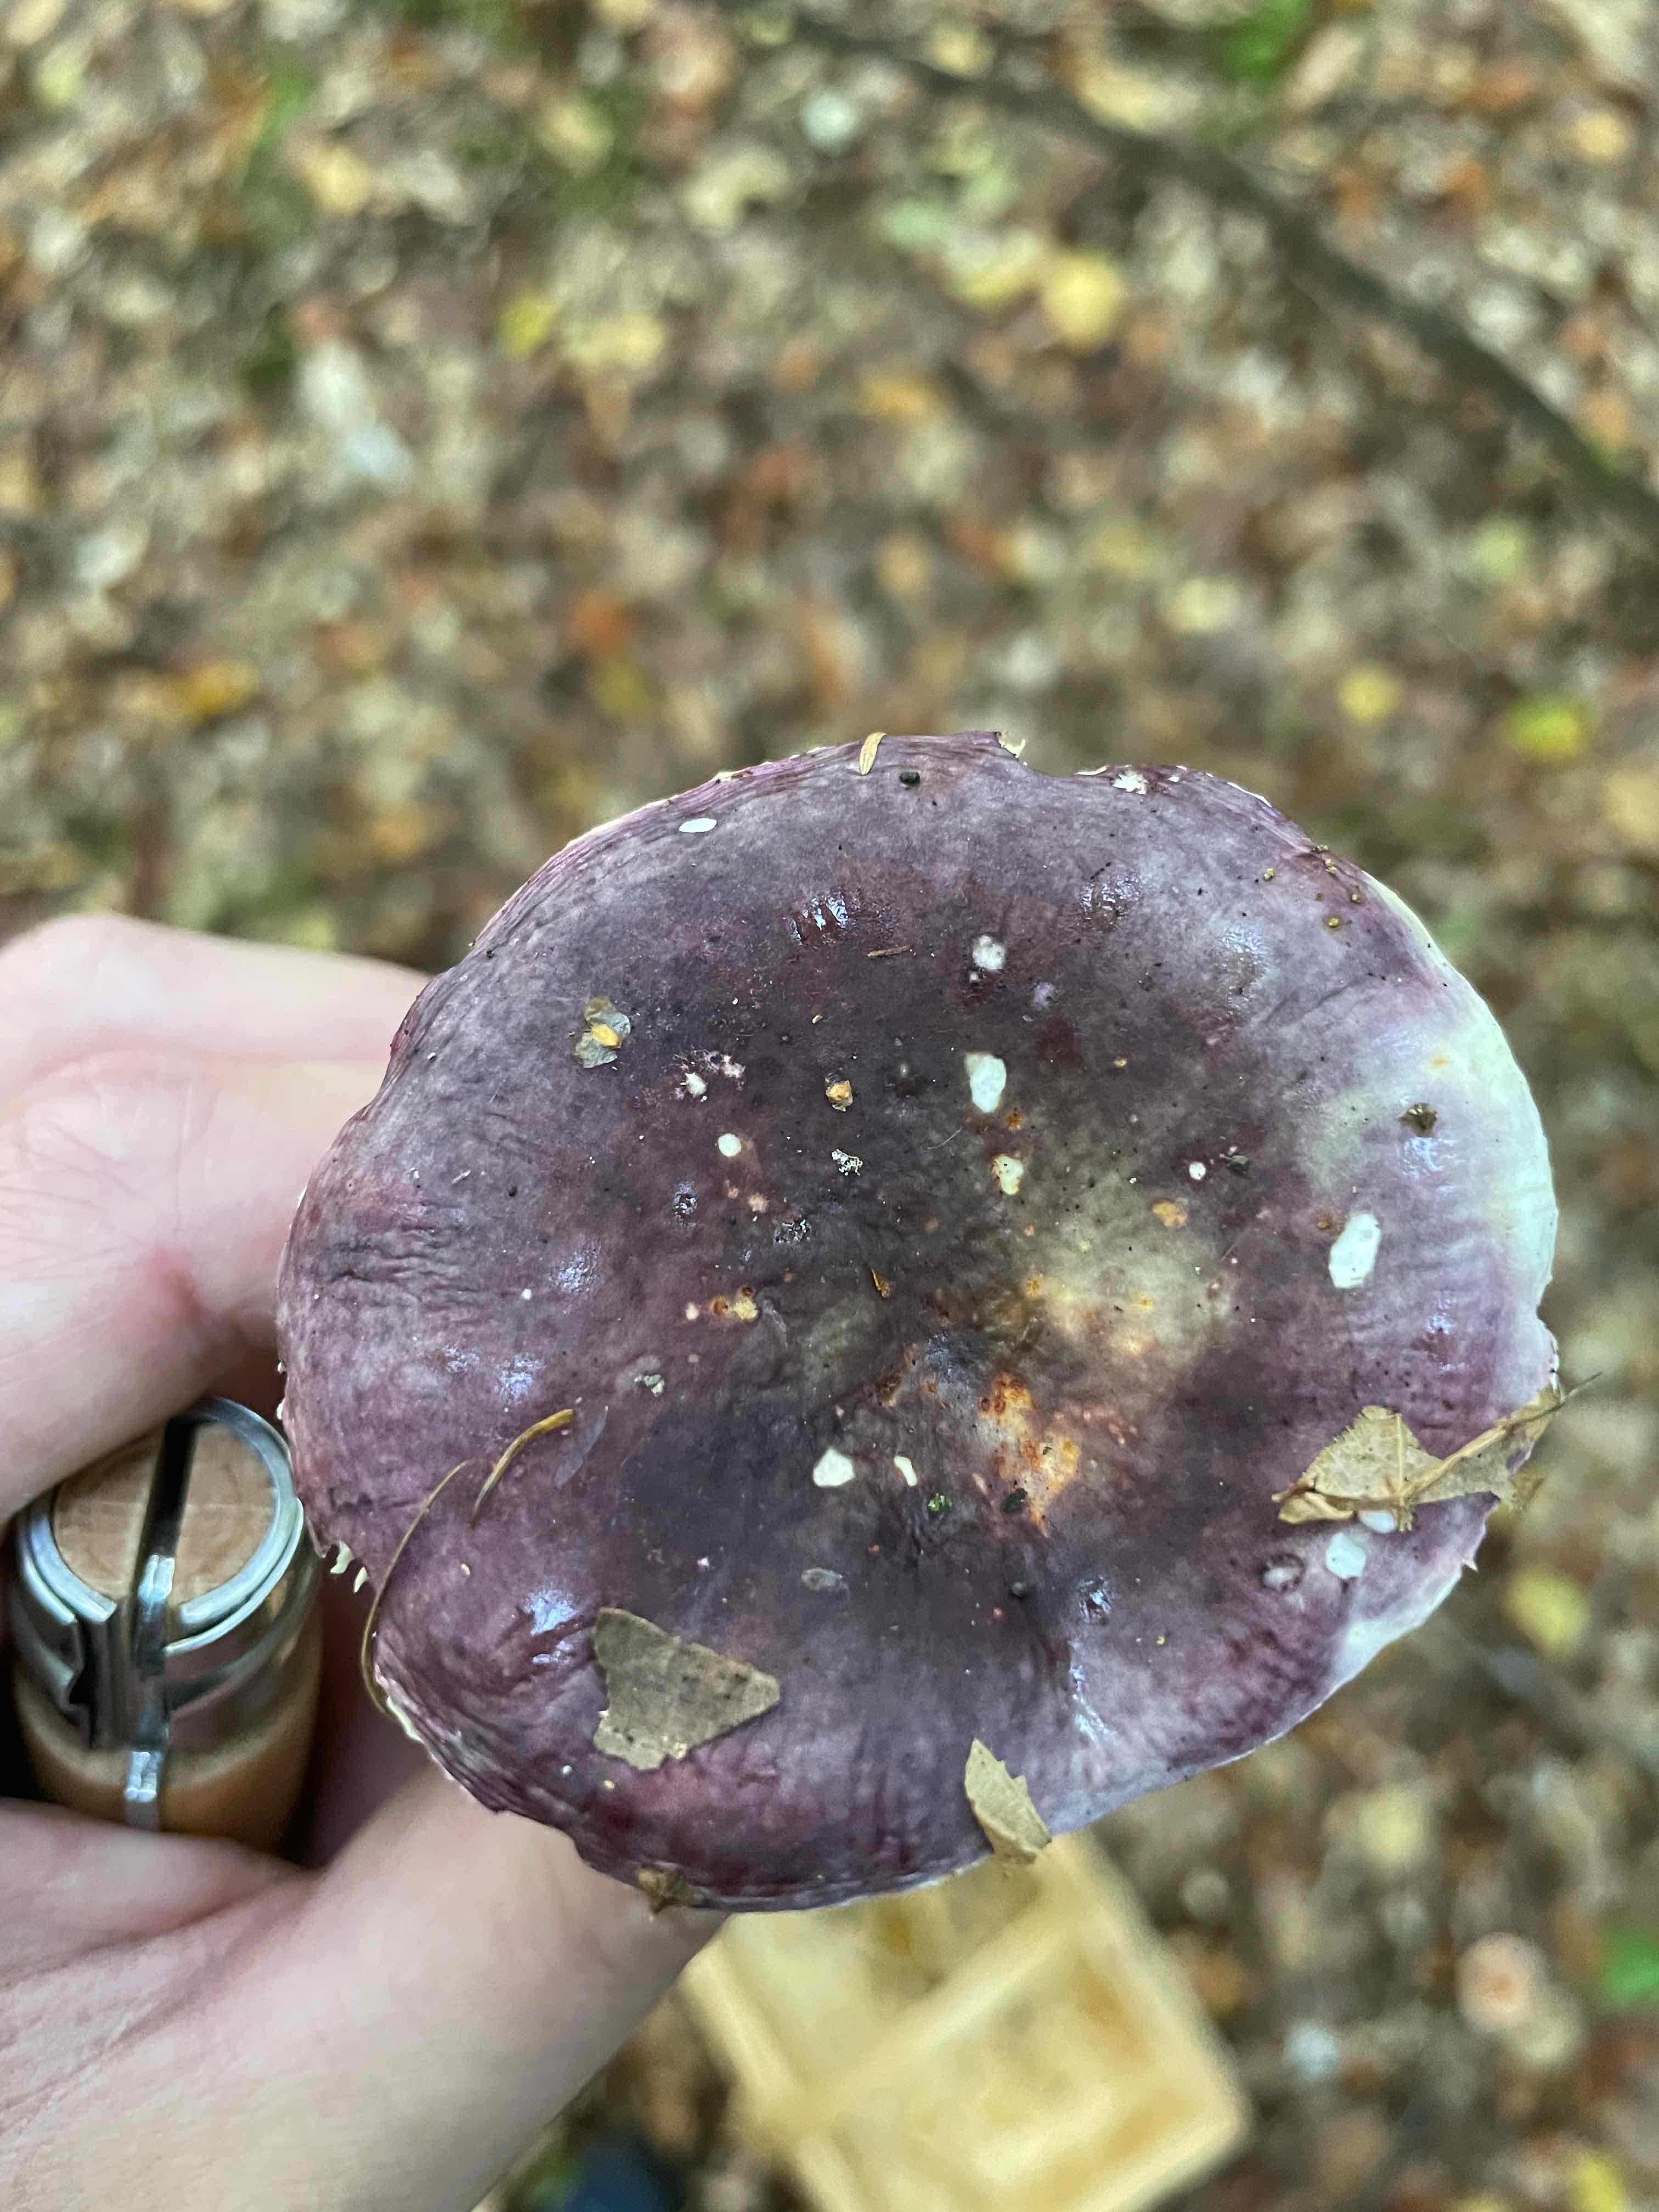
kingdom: Fungi
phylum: Basidiomycota
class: Agaricomycetes
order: Russulales
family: Russulaceae
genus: Russula
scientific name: Russula
